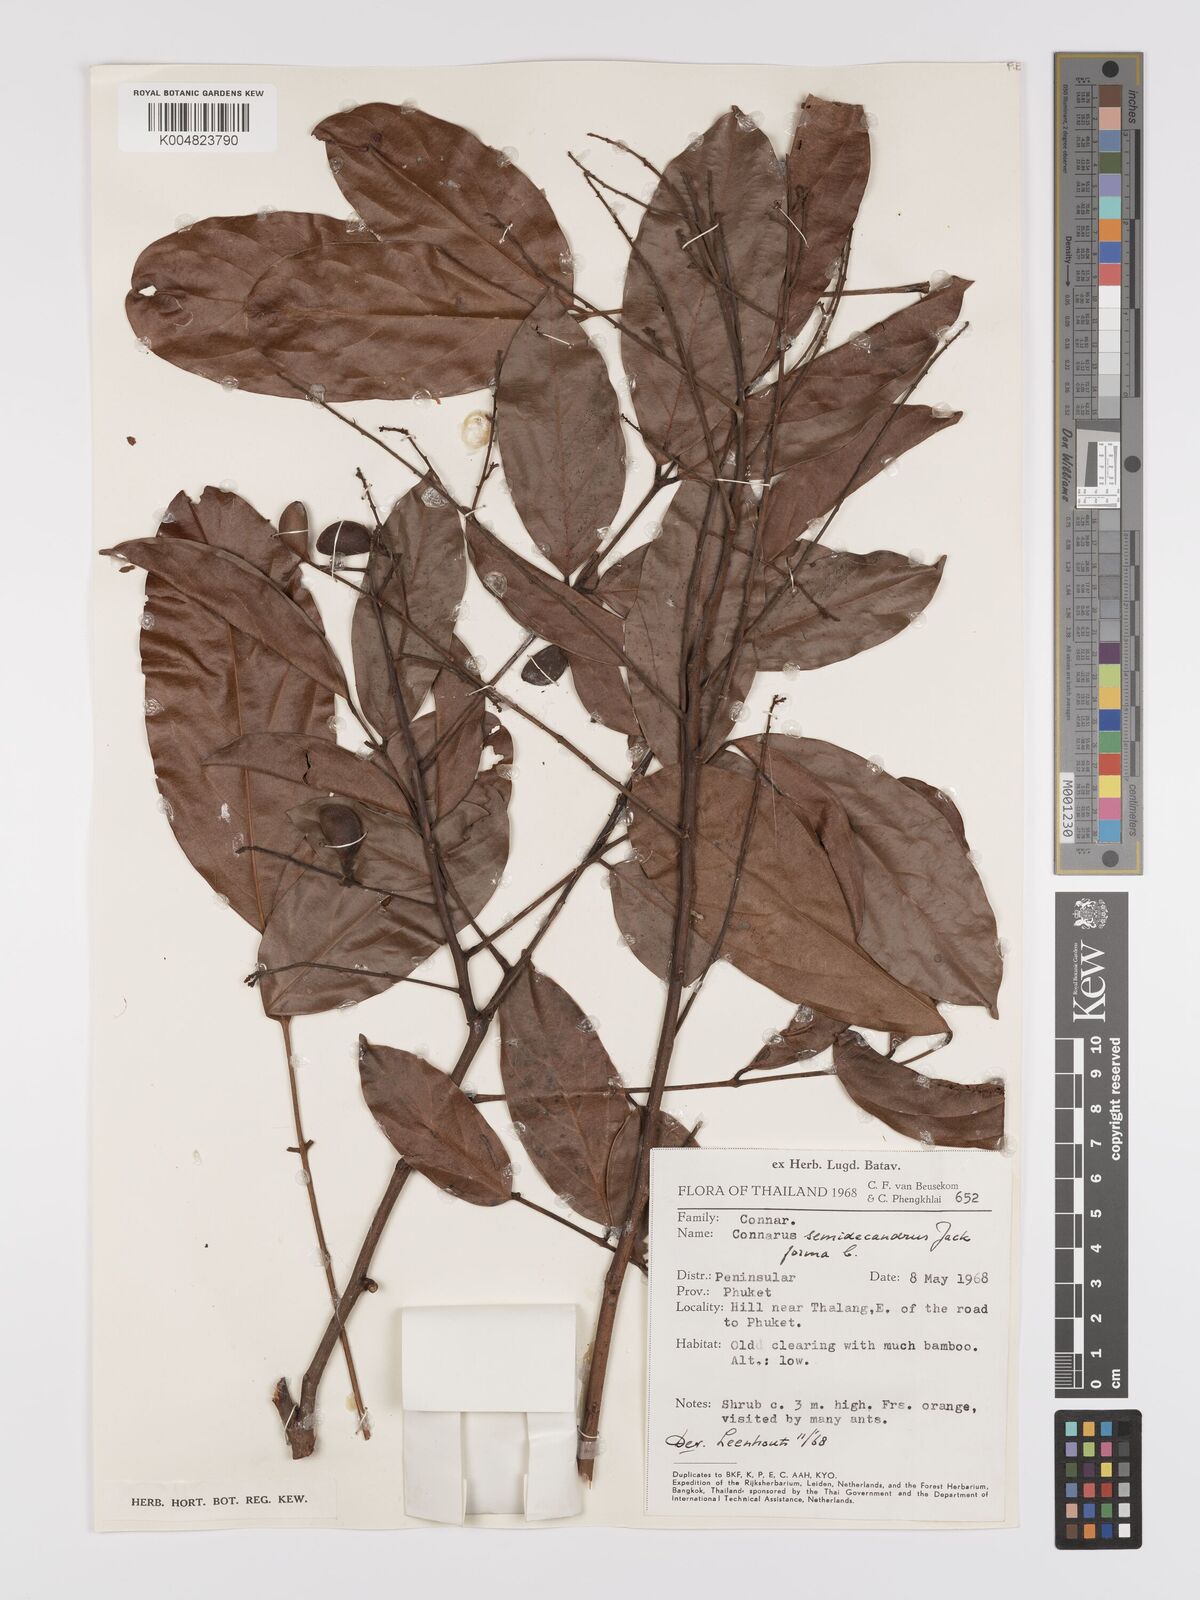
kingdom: Plantae
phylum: Tracheophyta
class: Magnoliopsida
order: Oxalidales
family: Connaraceae
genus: Connarus
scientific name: Connarus semidecandrus
